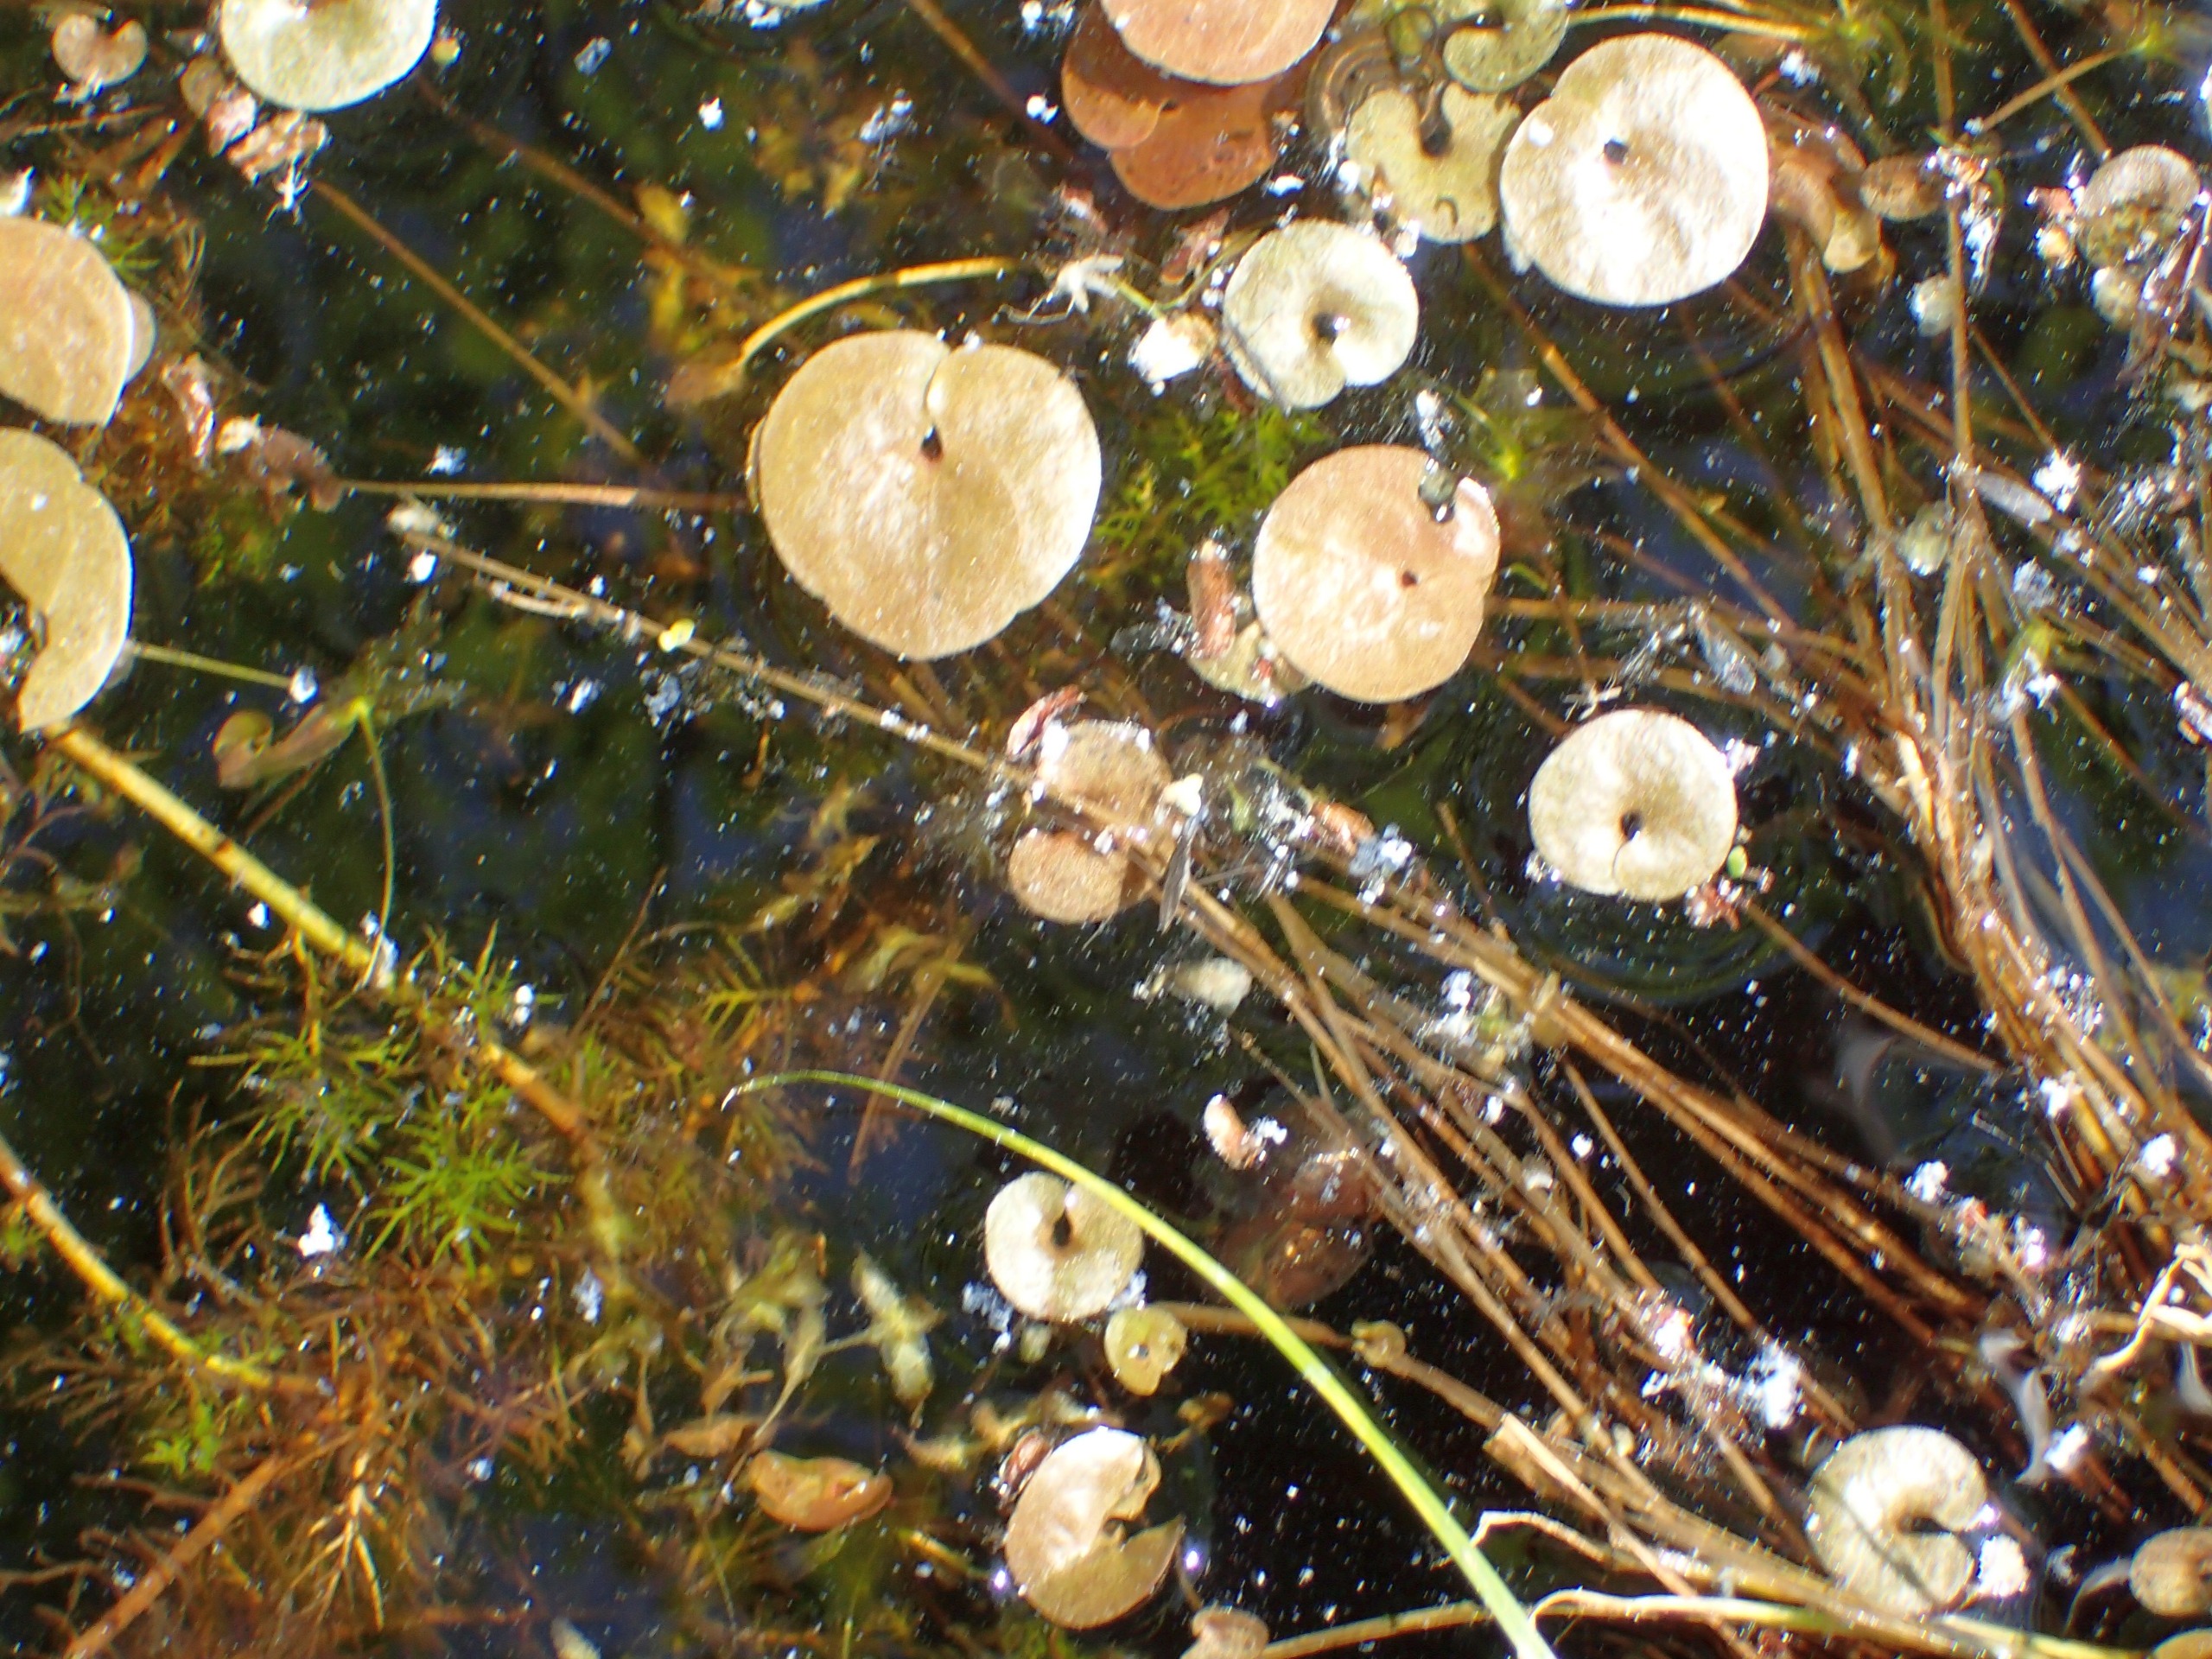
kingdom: Plantae
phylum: Tracheophyta
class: Liliopsida
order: Alismatales
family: Hydrocharitaceae
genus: Hydrocharis
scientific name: Hydrocharis morsus-ranae
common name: Frøbid
